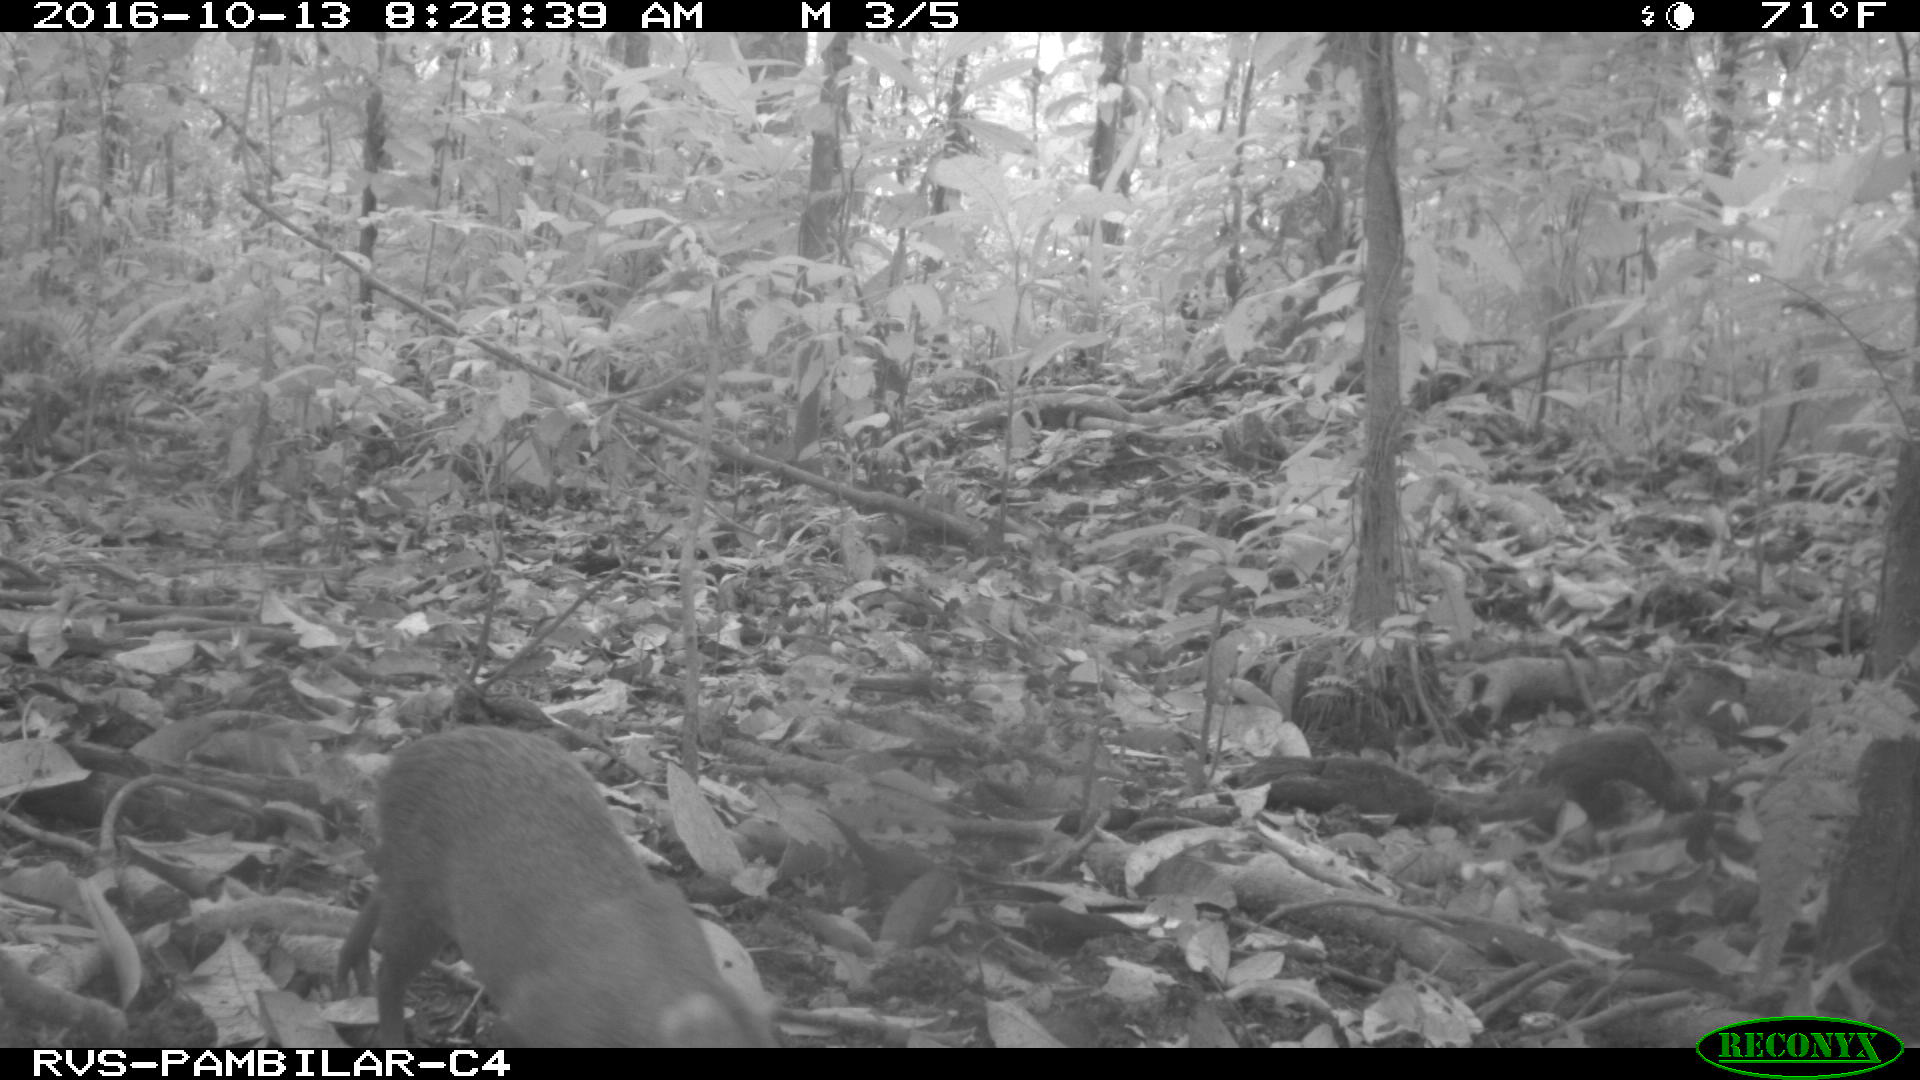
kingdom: Animalia
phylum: Chordata
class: Mammalia
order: Rodentia
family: Dasyproctidae
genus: Dasyprocta
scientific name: Dasyprocta punctata
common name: Central american agouti
